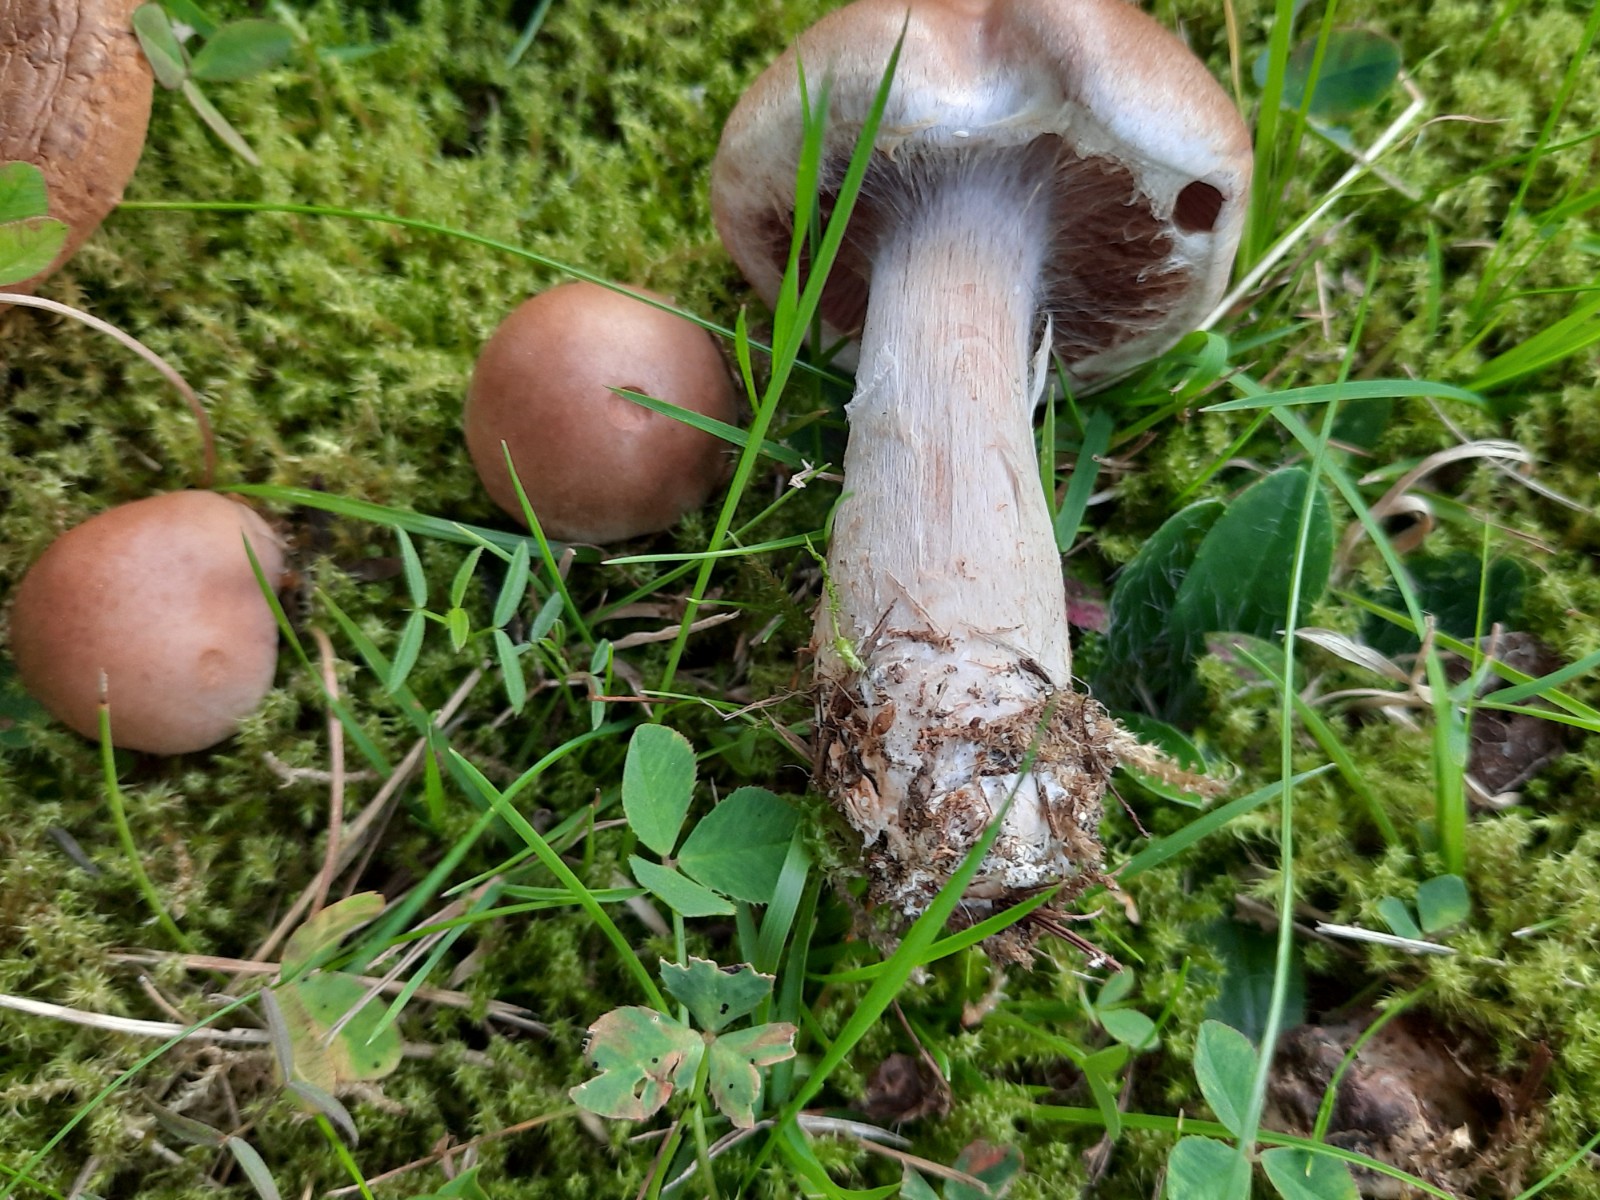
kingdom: Fungi
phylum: Basidiomycota
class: Agaricomycetes
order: Agaricales
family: Cortinariaceae
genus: Cortinarius
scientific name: Cortinarius lucorum
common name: aspe-slørhat
